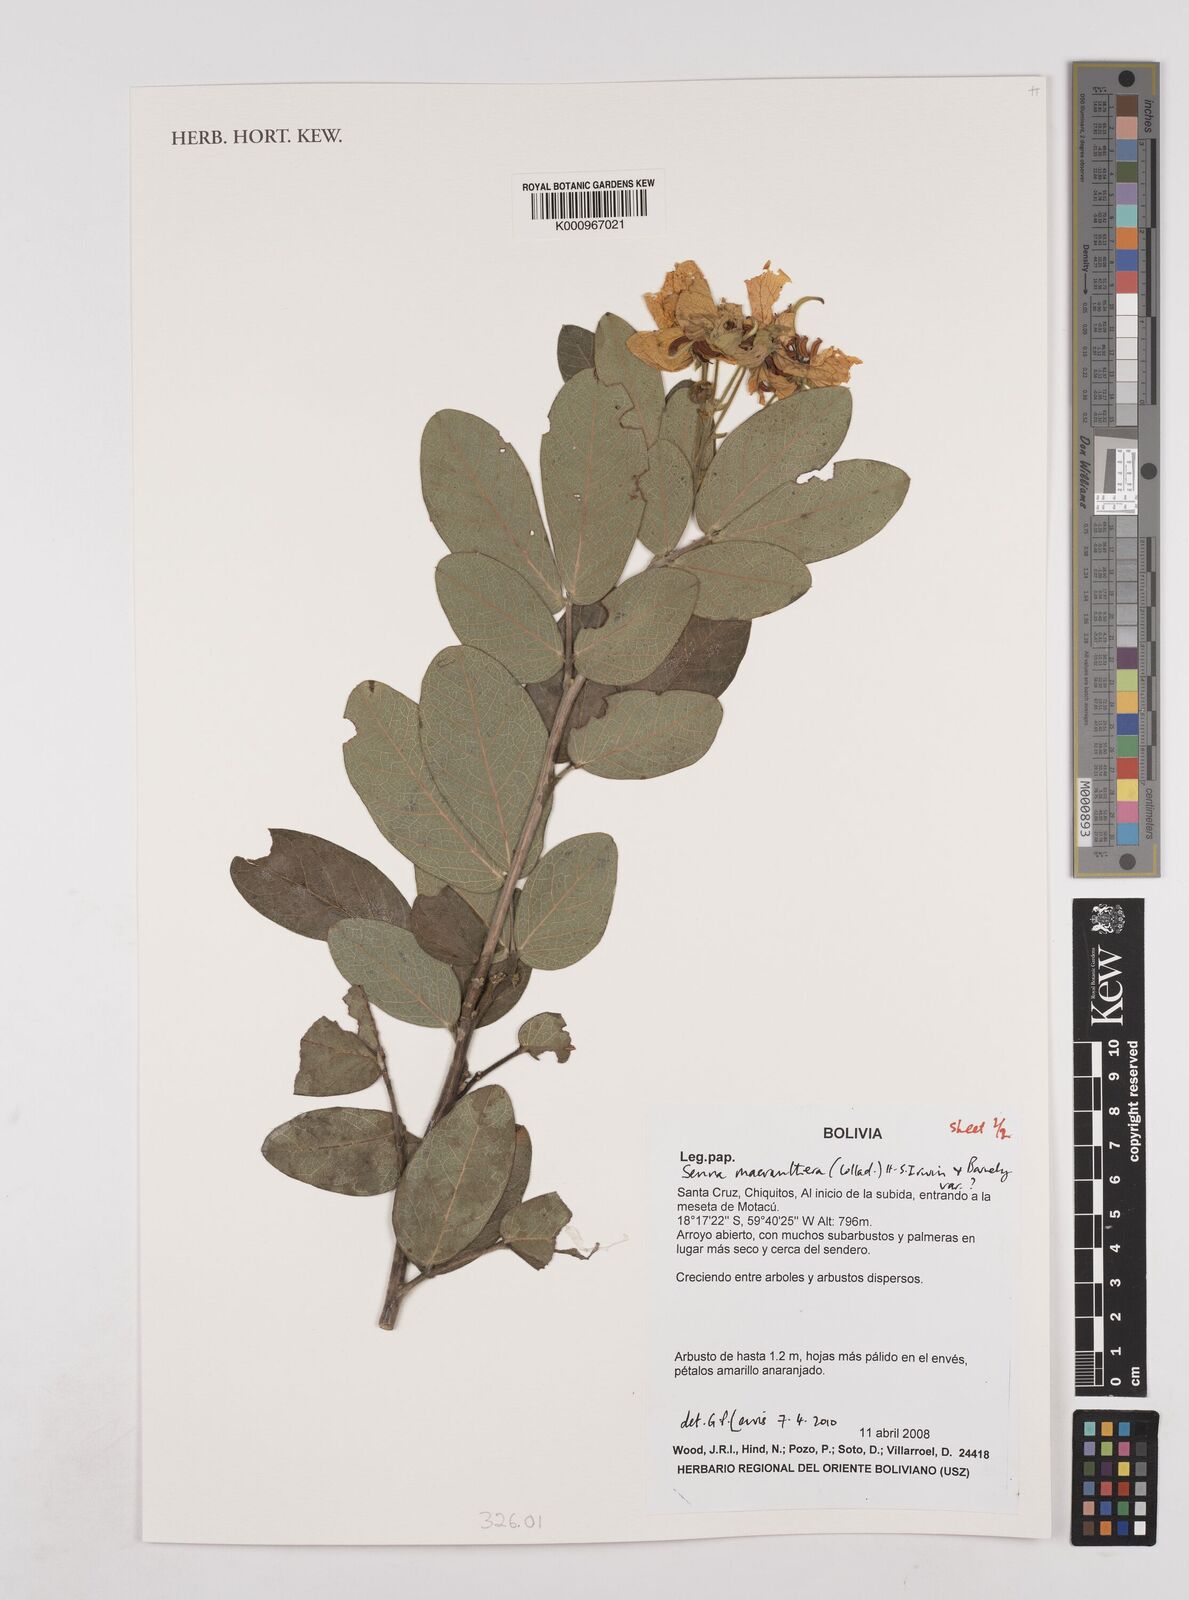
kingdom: Plantae
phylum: Tracheophyta
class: Magnoliopsida
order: Fabales
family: Fabaceae
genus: Senna
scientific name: Senna macranthera
